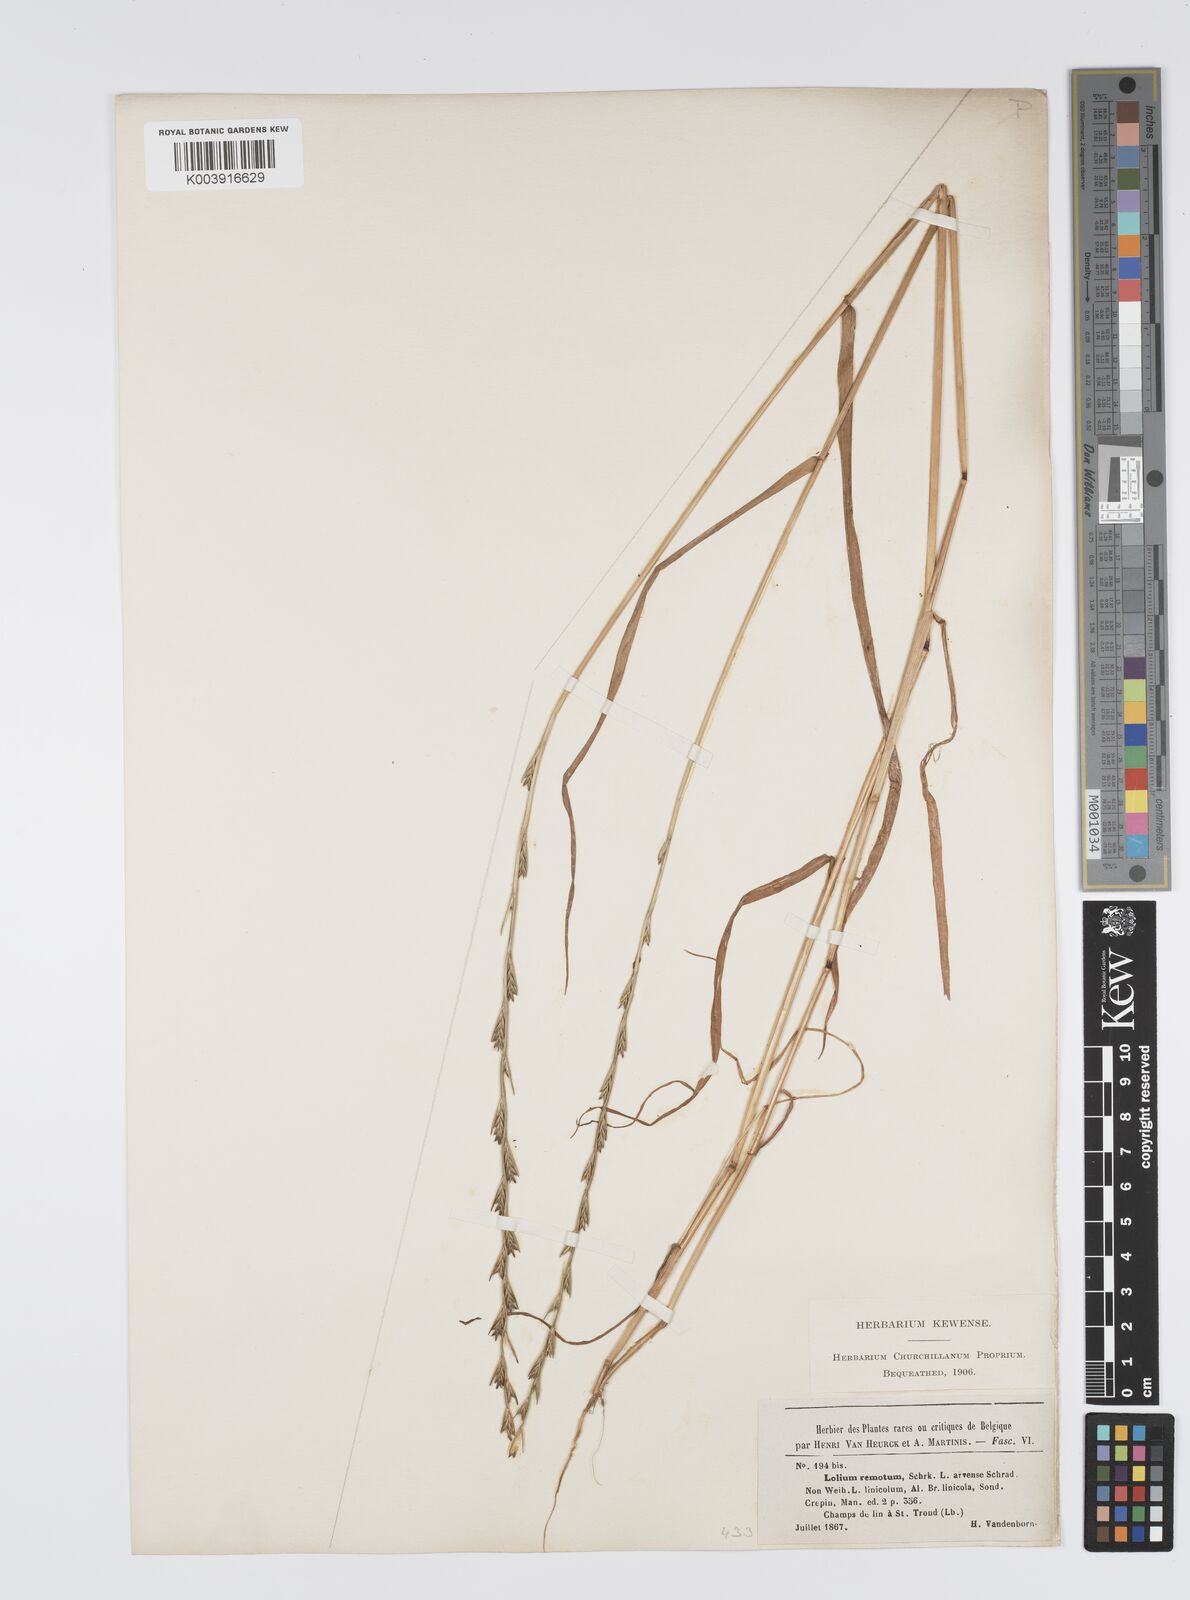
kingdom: Plantae
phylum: Tracheophyta
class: Liliopsida
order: Poales
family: Poaceae
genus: Lolium
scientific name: Lolium remotum
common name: Flaxfield rye-grass
